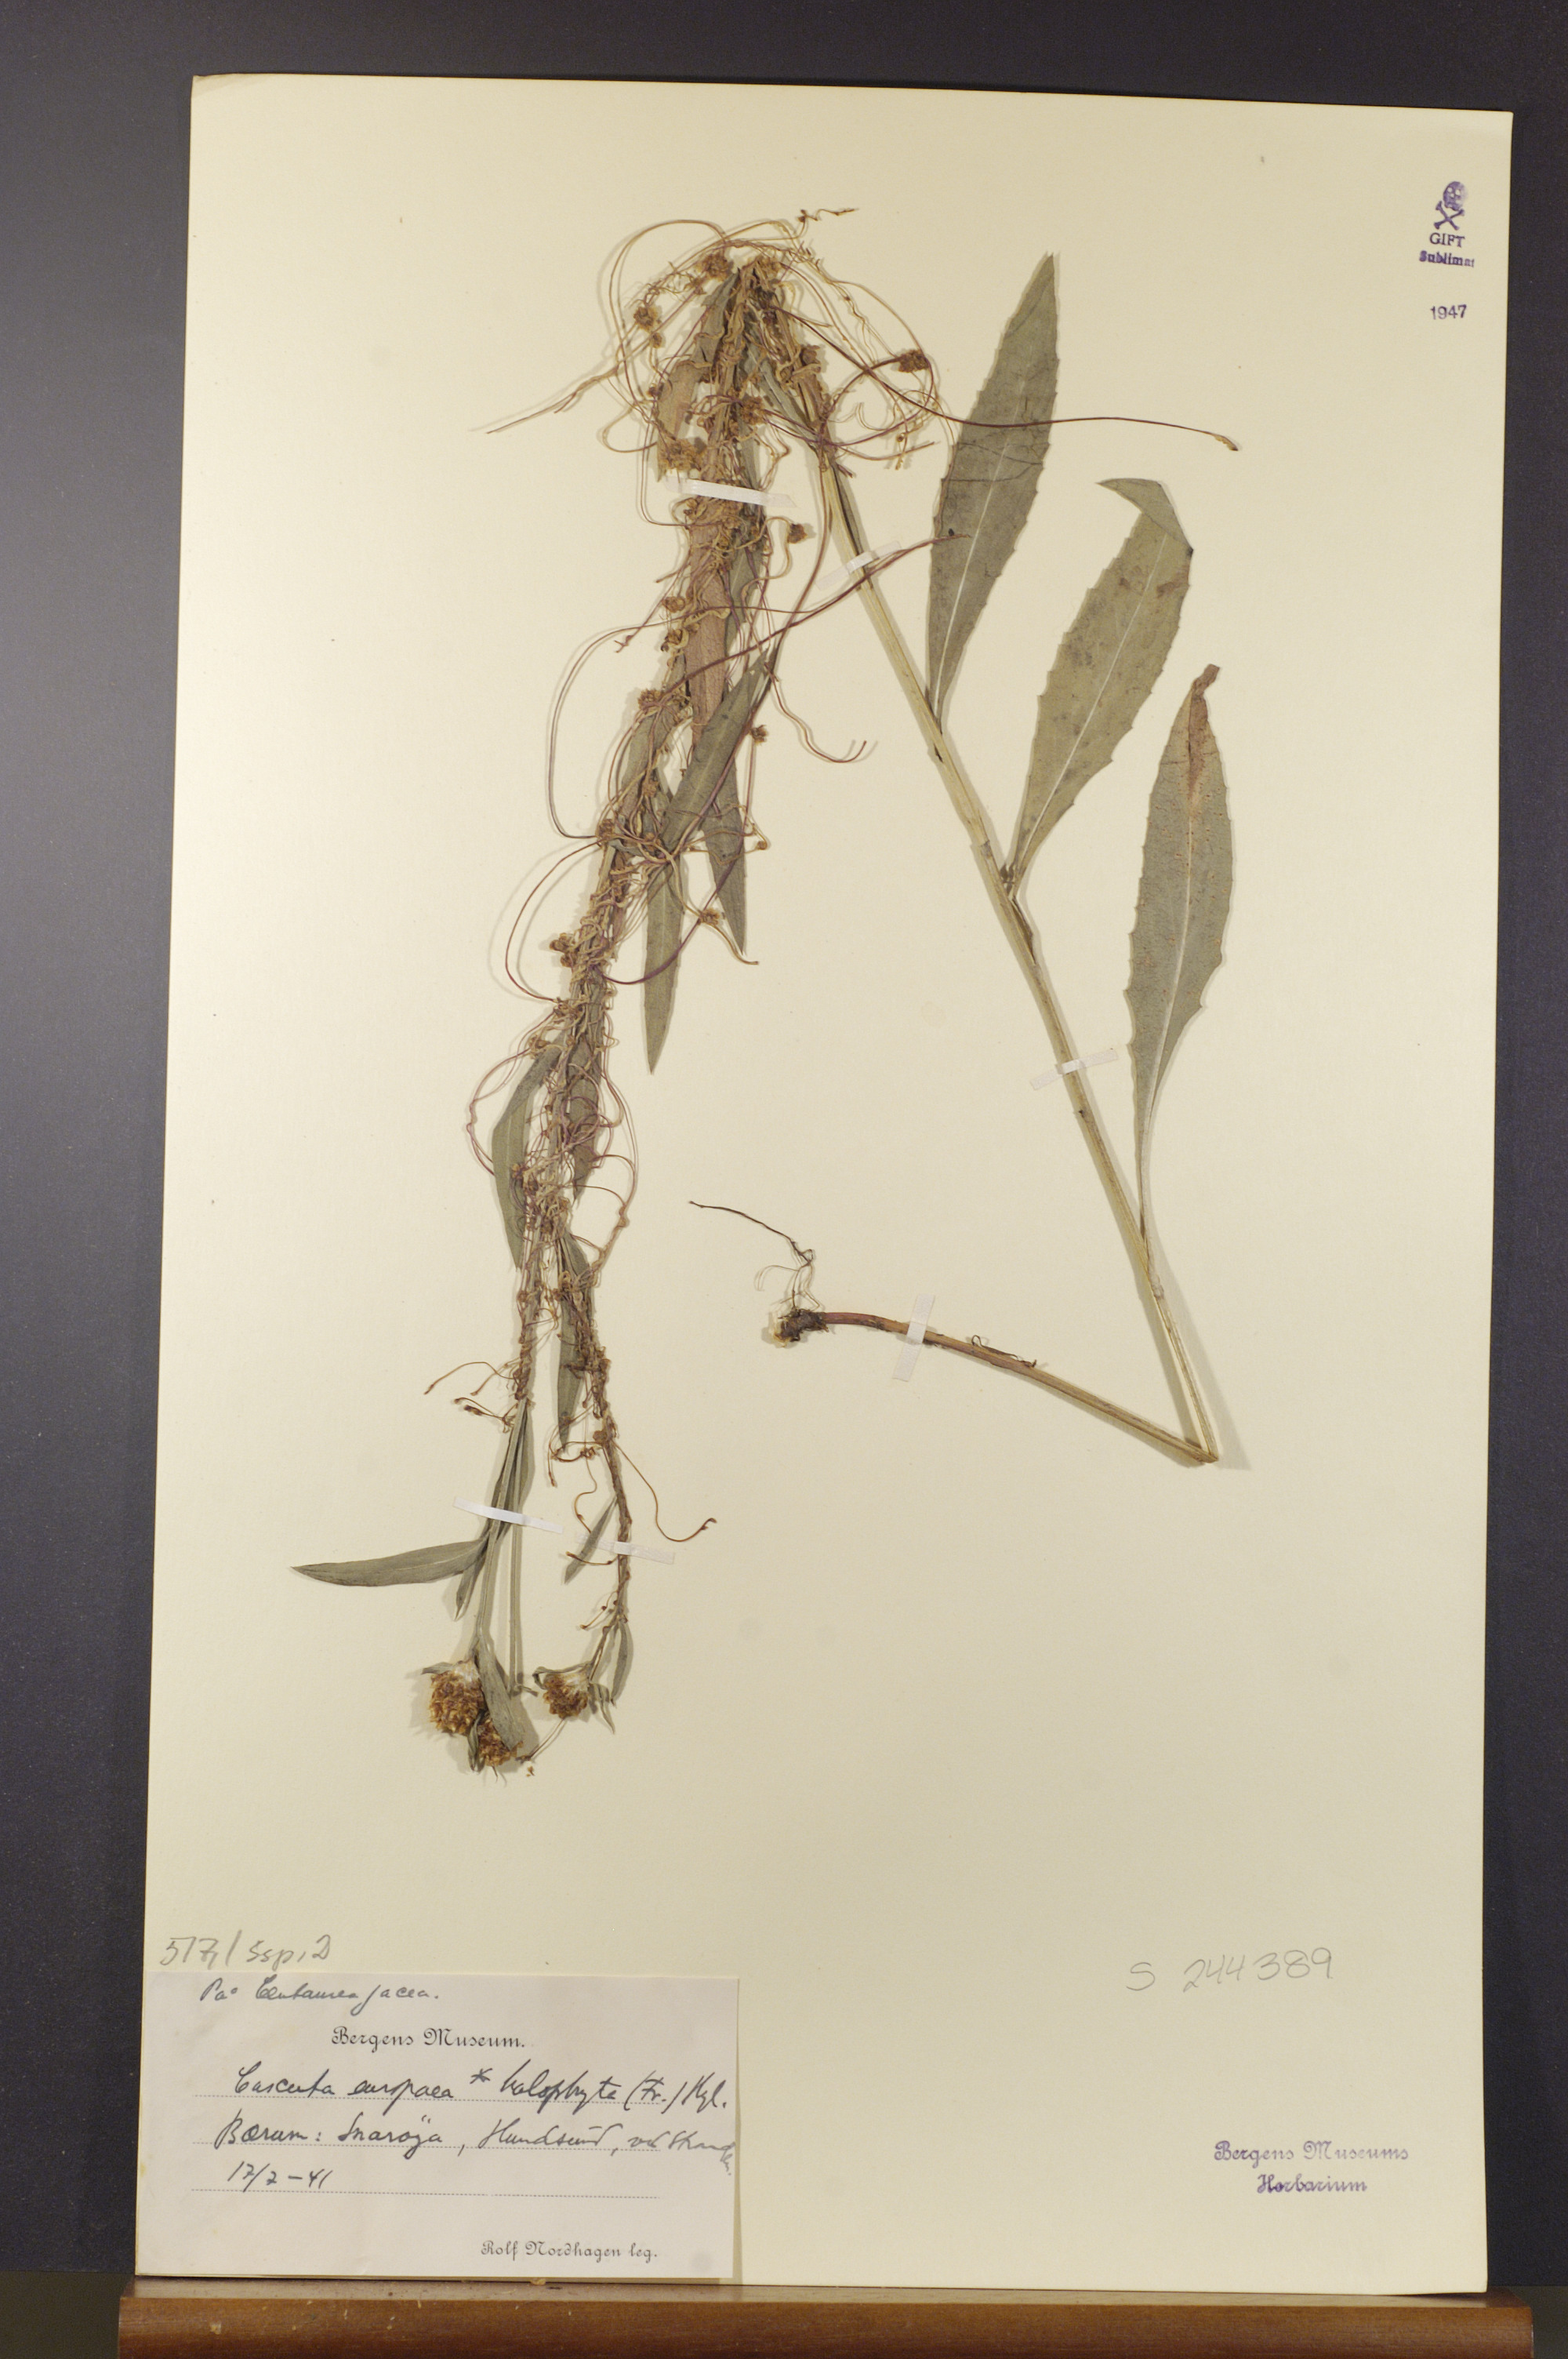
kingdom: Plantae
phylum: Tracheophyta
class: Magnoliopsida
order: Solanales
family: Convolvulaceae
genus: Cuscuta
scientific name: Cuscuta europaea
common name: Greater dodder
